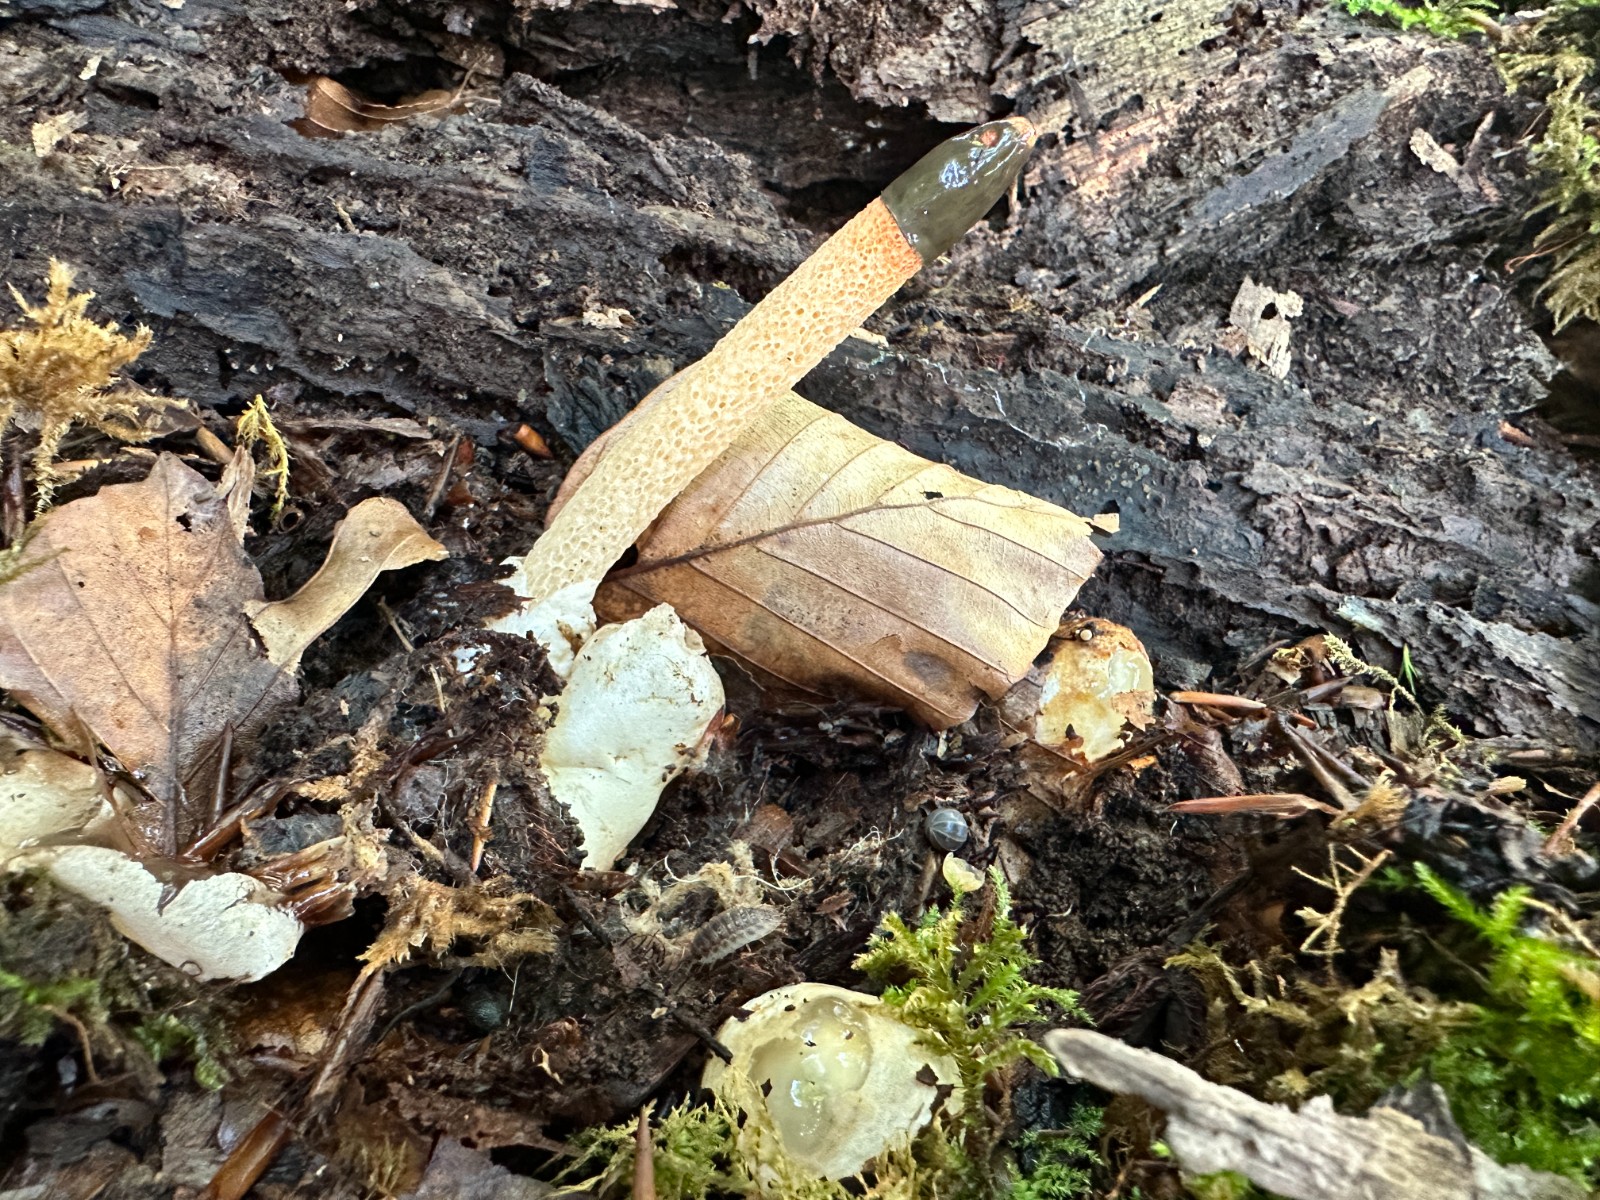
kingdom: Fungi
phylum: Basidiomycota
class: Agaricomycetes
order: Phallales
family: Phallaceae
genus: Mutinus
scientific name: Mutinus caninus
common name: hunde-stinksvamp
